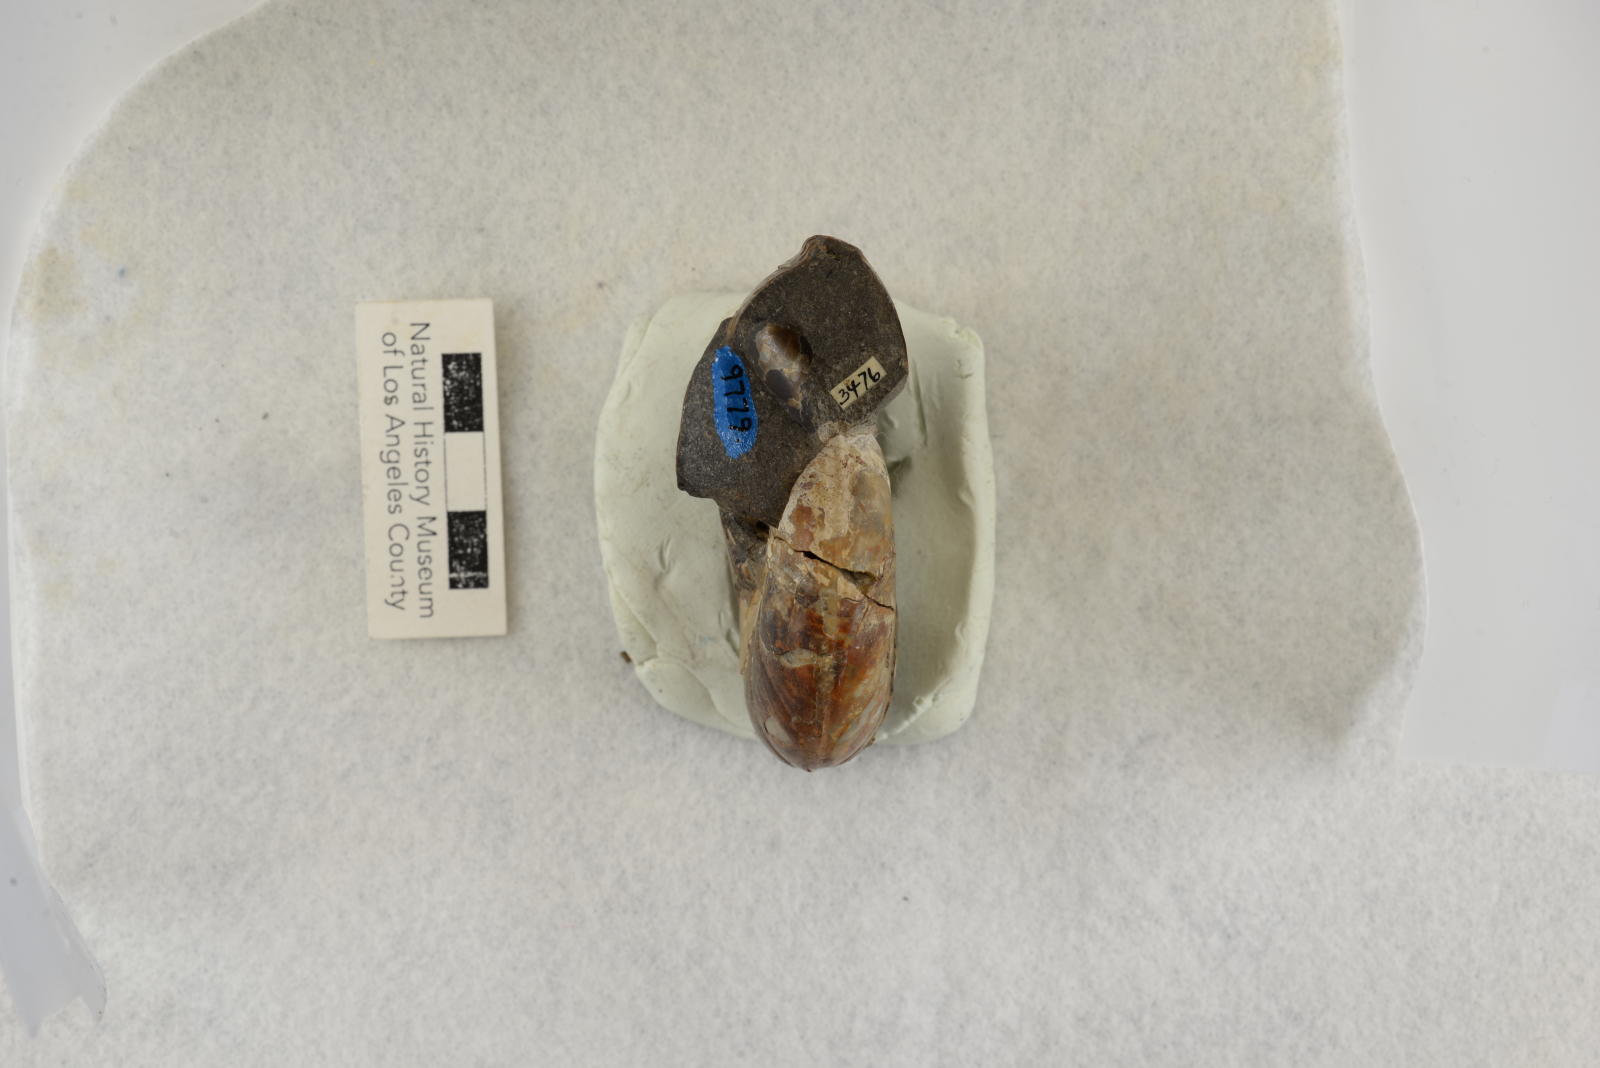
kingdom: Animalia
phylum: Mollusca
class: Cephalopoda
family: Desmoceratidae
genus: Damesites
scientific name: Damesites damesi
